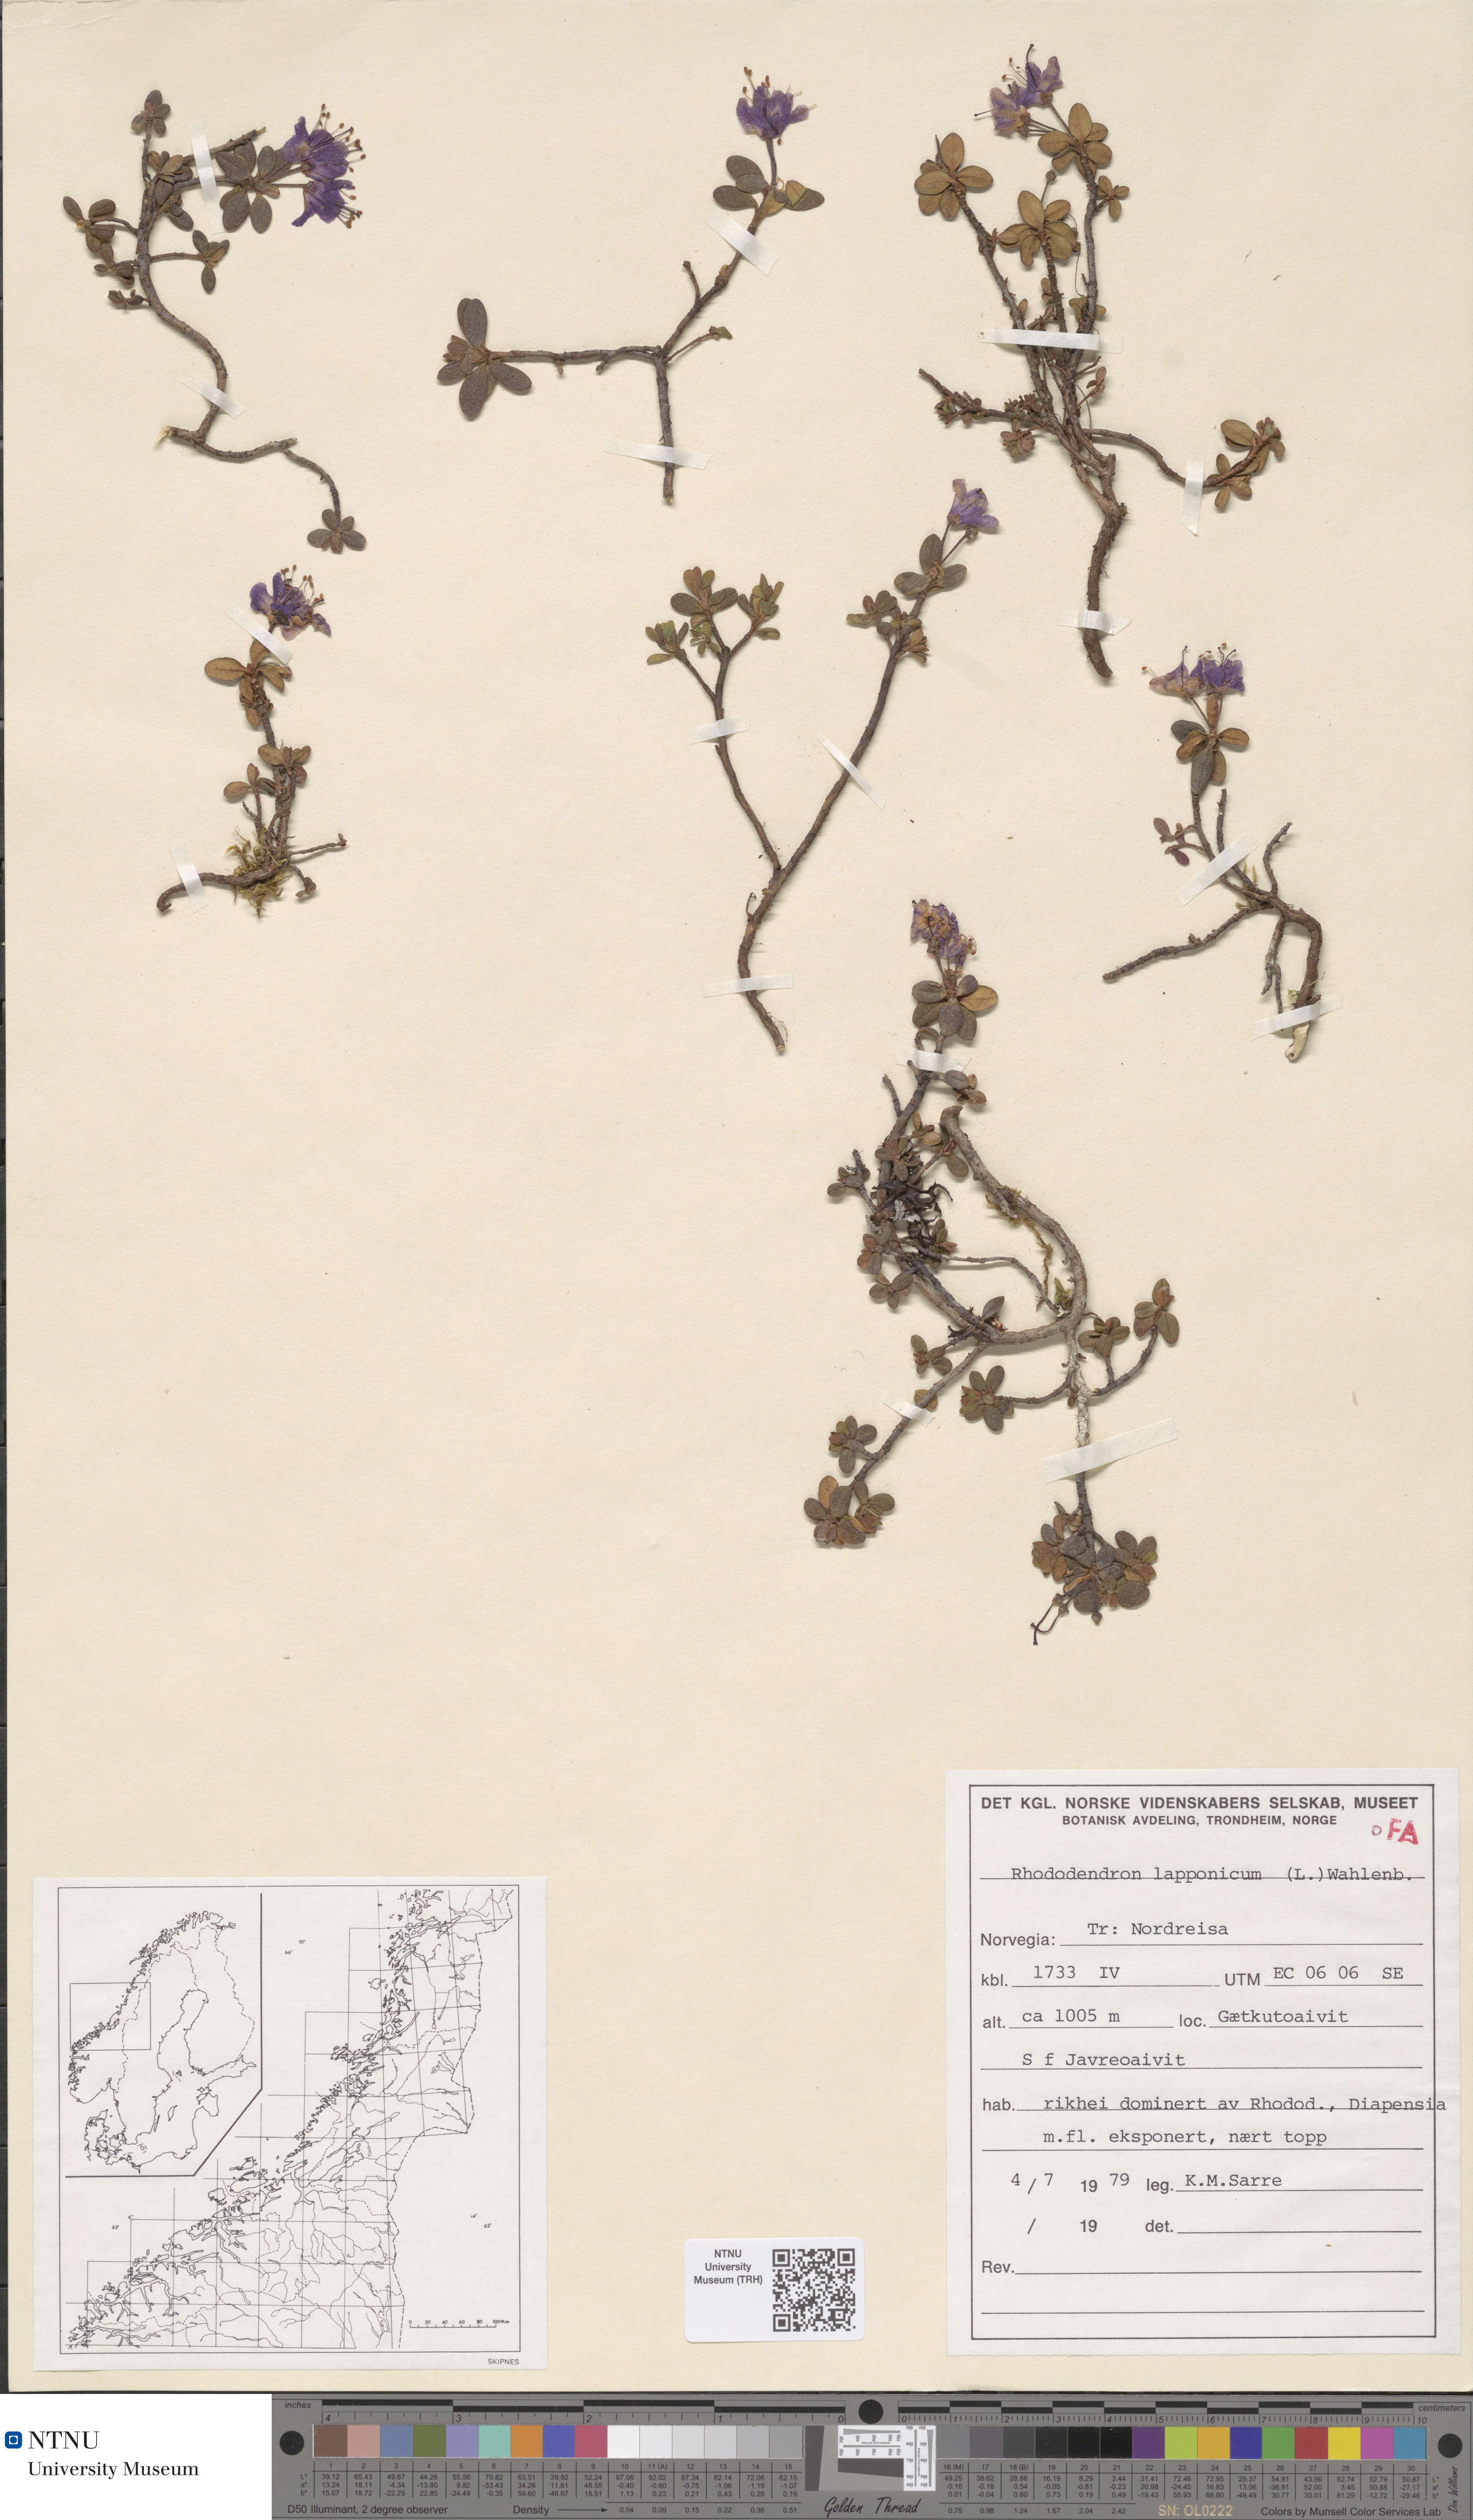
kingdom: Plantae
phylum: Tracheophyta
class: Magnoliopsida
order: Ericales
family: Ericaceae
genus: Rhododendron
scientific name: Rhododendron lapponicum
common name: Lapland rhododendron
